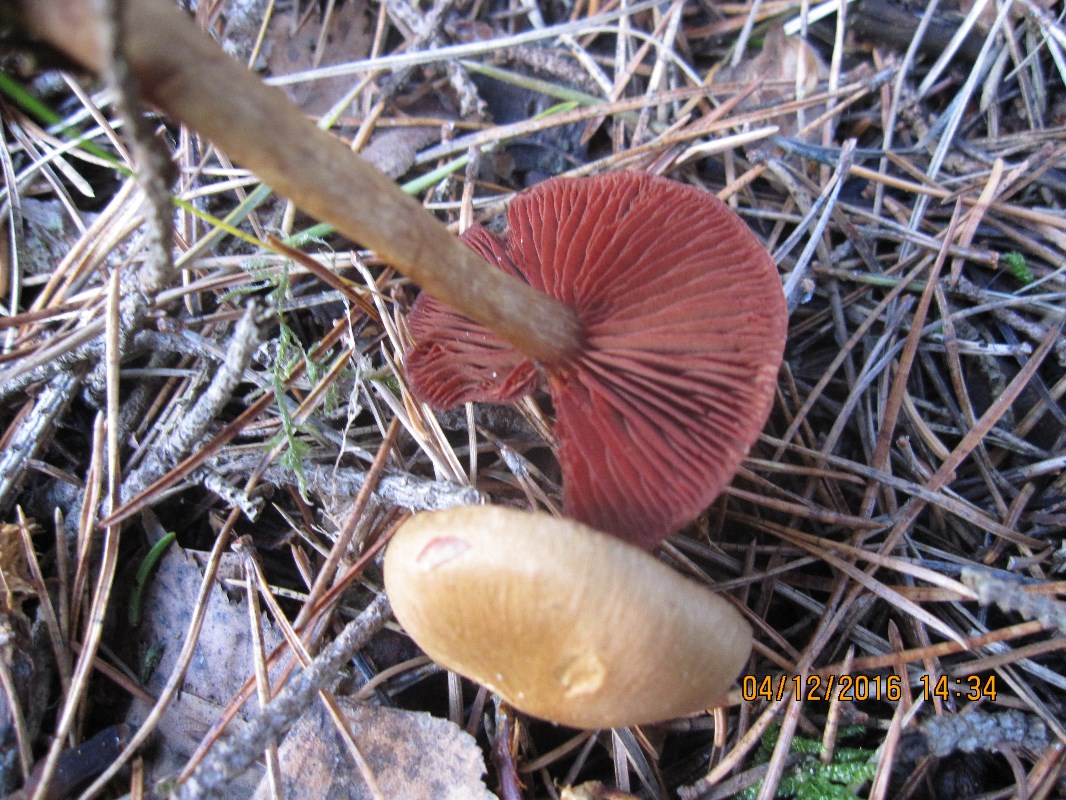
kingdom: Fungi
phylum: Basidiomycota
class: Agaricomycetes
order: Agaricales
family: Cortinariaceae
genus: Cortinarius
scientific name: Cortinarius
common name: cinnoberbladet slørhat
